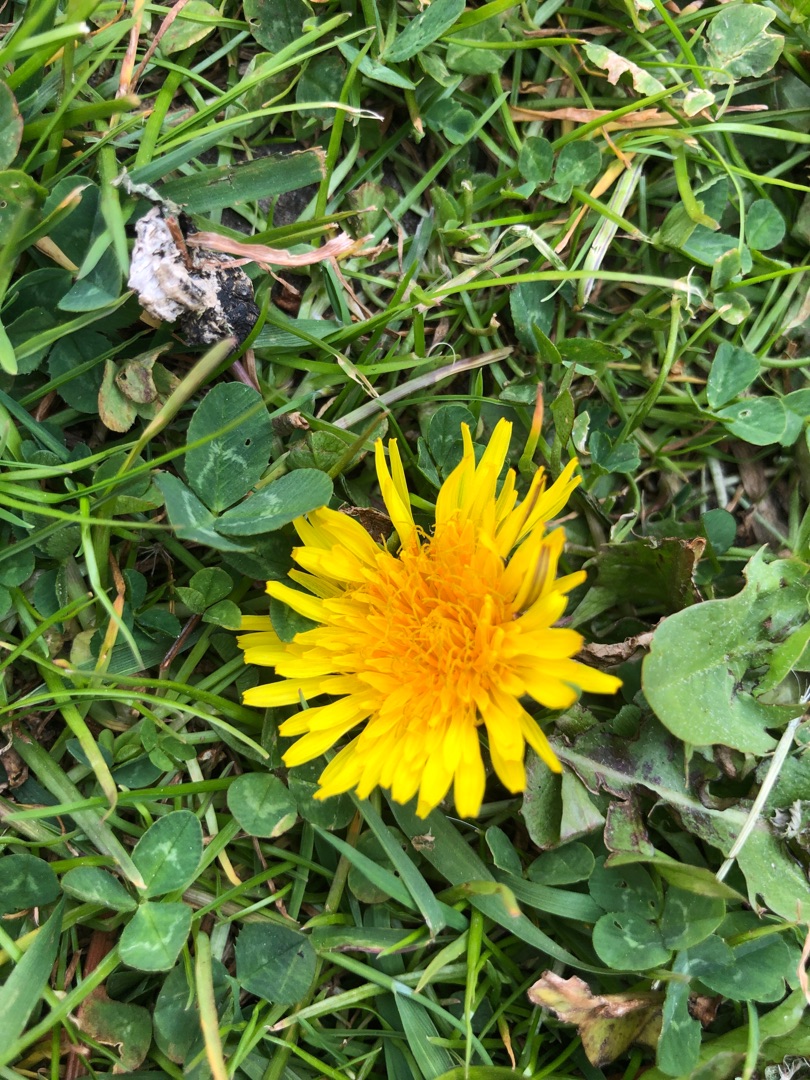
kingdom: Plantae
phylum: Tracheophyta
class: Magnoliopsida
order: Asterales
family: Asteraceae
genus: Taraxacum
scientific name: Taraxacum
